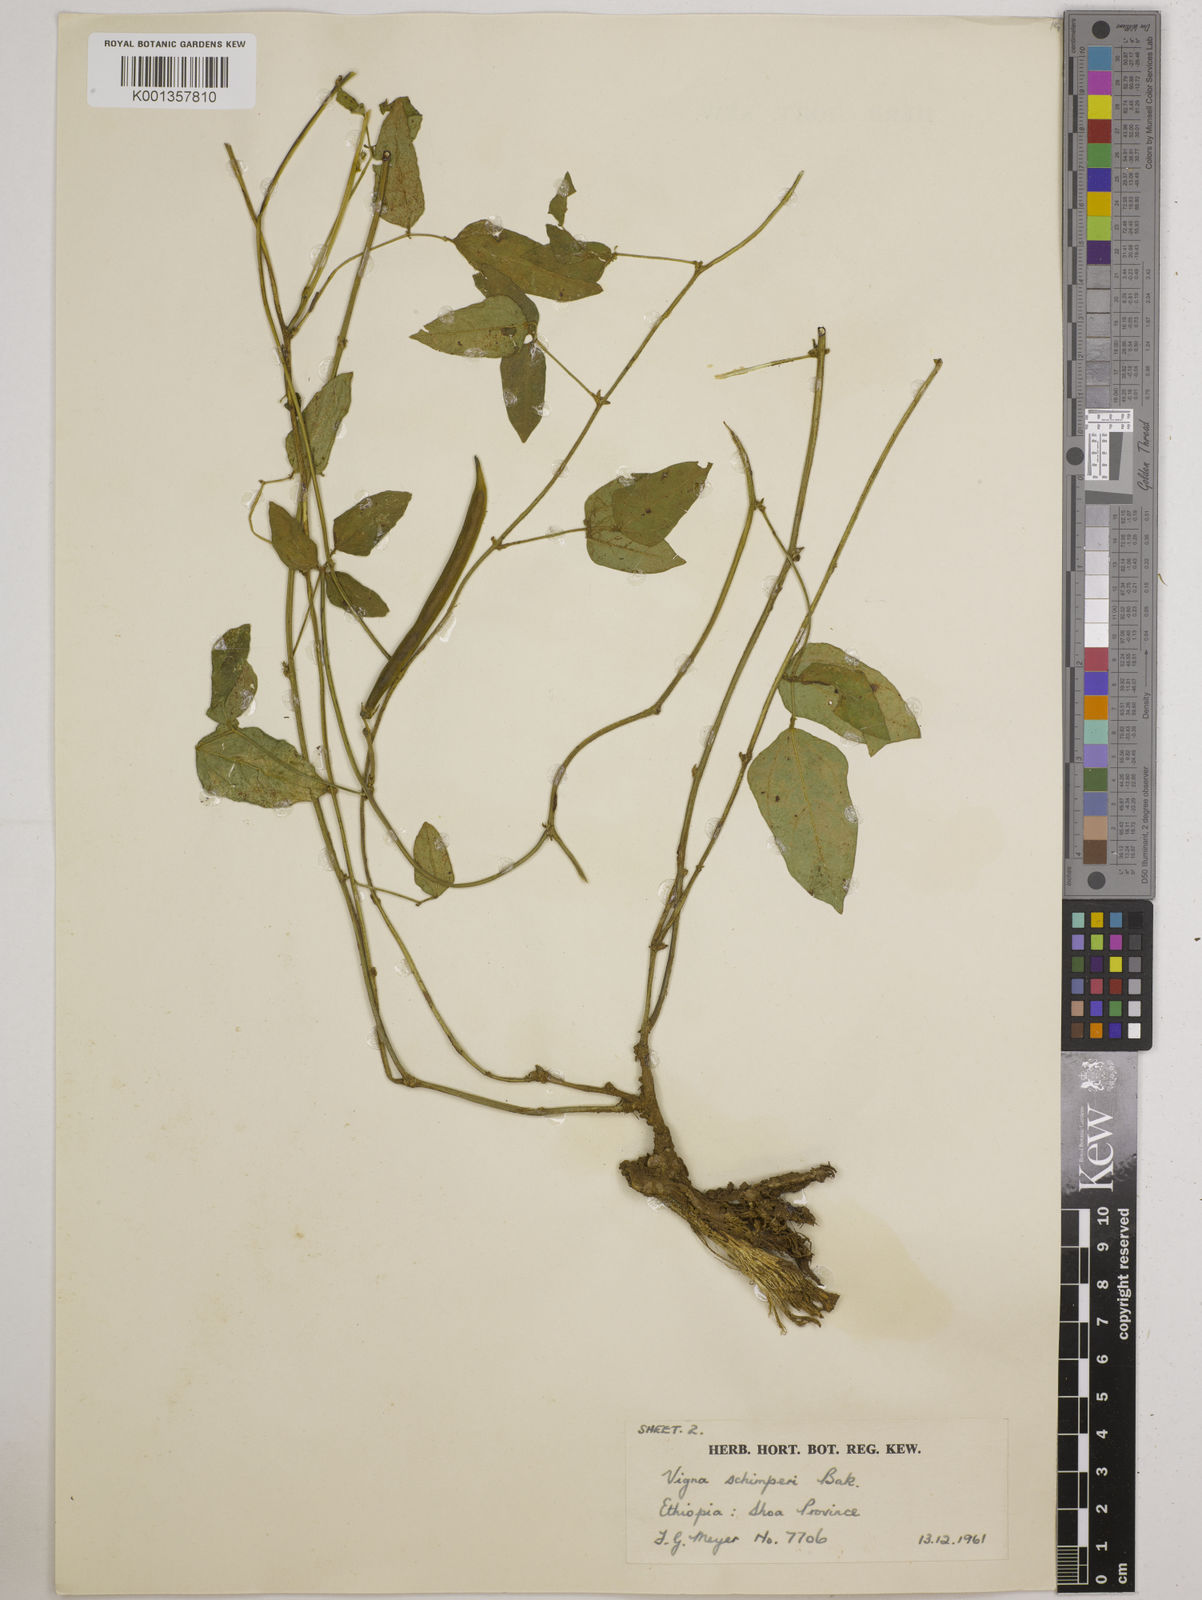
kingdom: Plantae
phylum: Tracheophyta
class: Magnoliopsida
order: Fabales
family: Fabaceae
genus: Vigna
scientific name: Vigna schimperi
